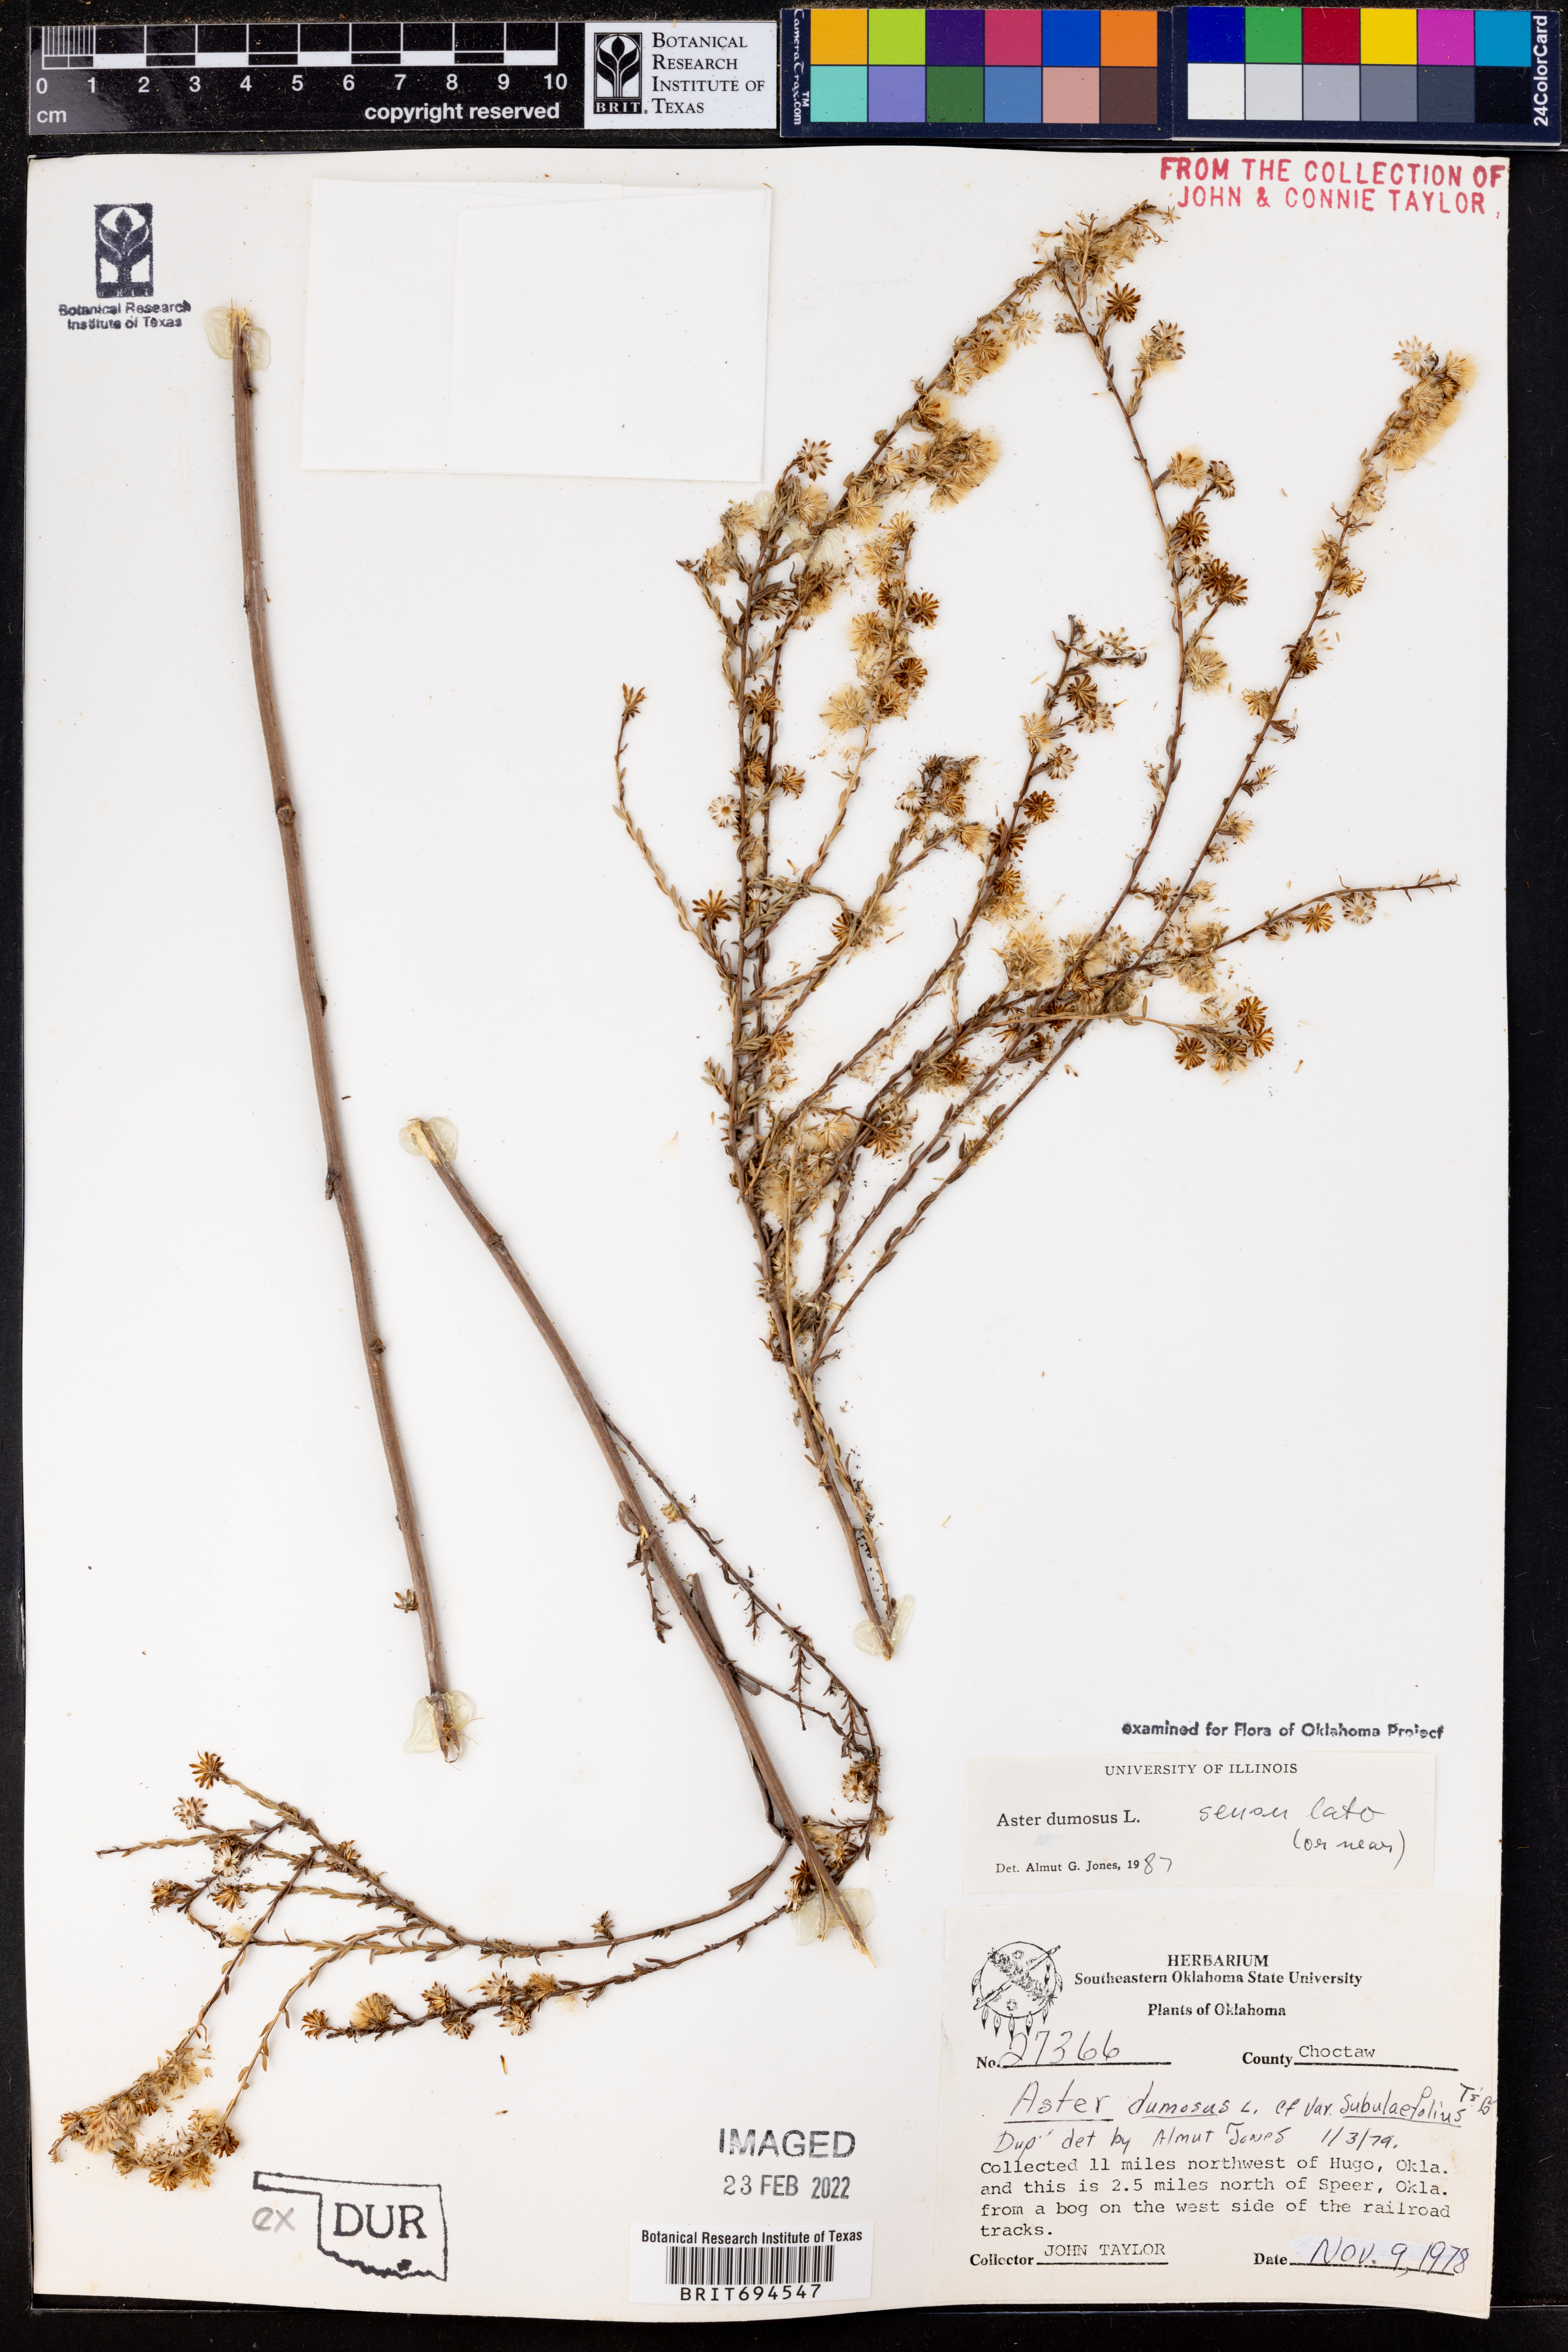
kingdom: Plantae
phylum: Tracheophyta
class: Magnoliopsida
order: Asterales
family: Asteraceae
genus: Symphyotrichum
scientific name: Symphyotrichum dumosum
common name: Bushy aster
